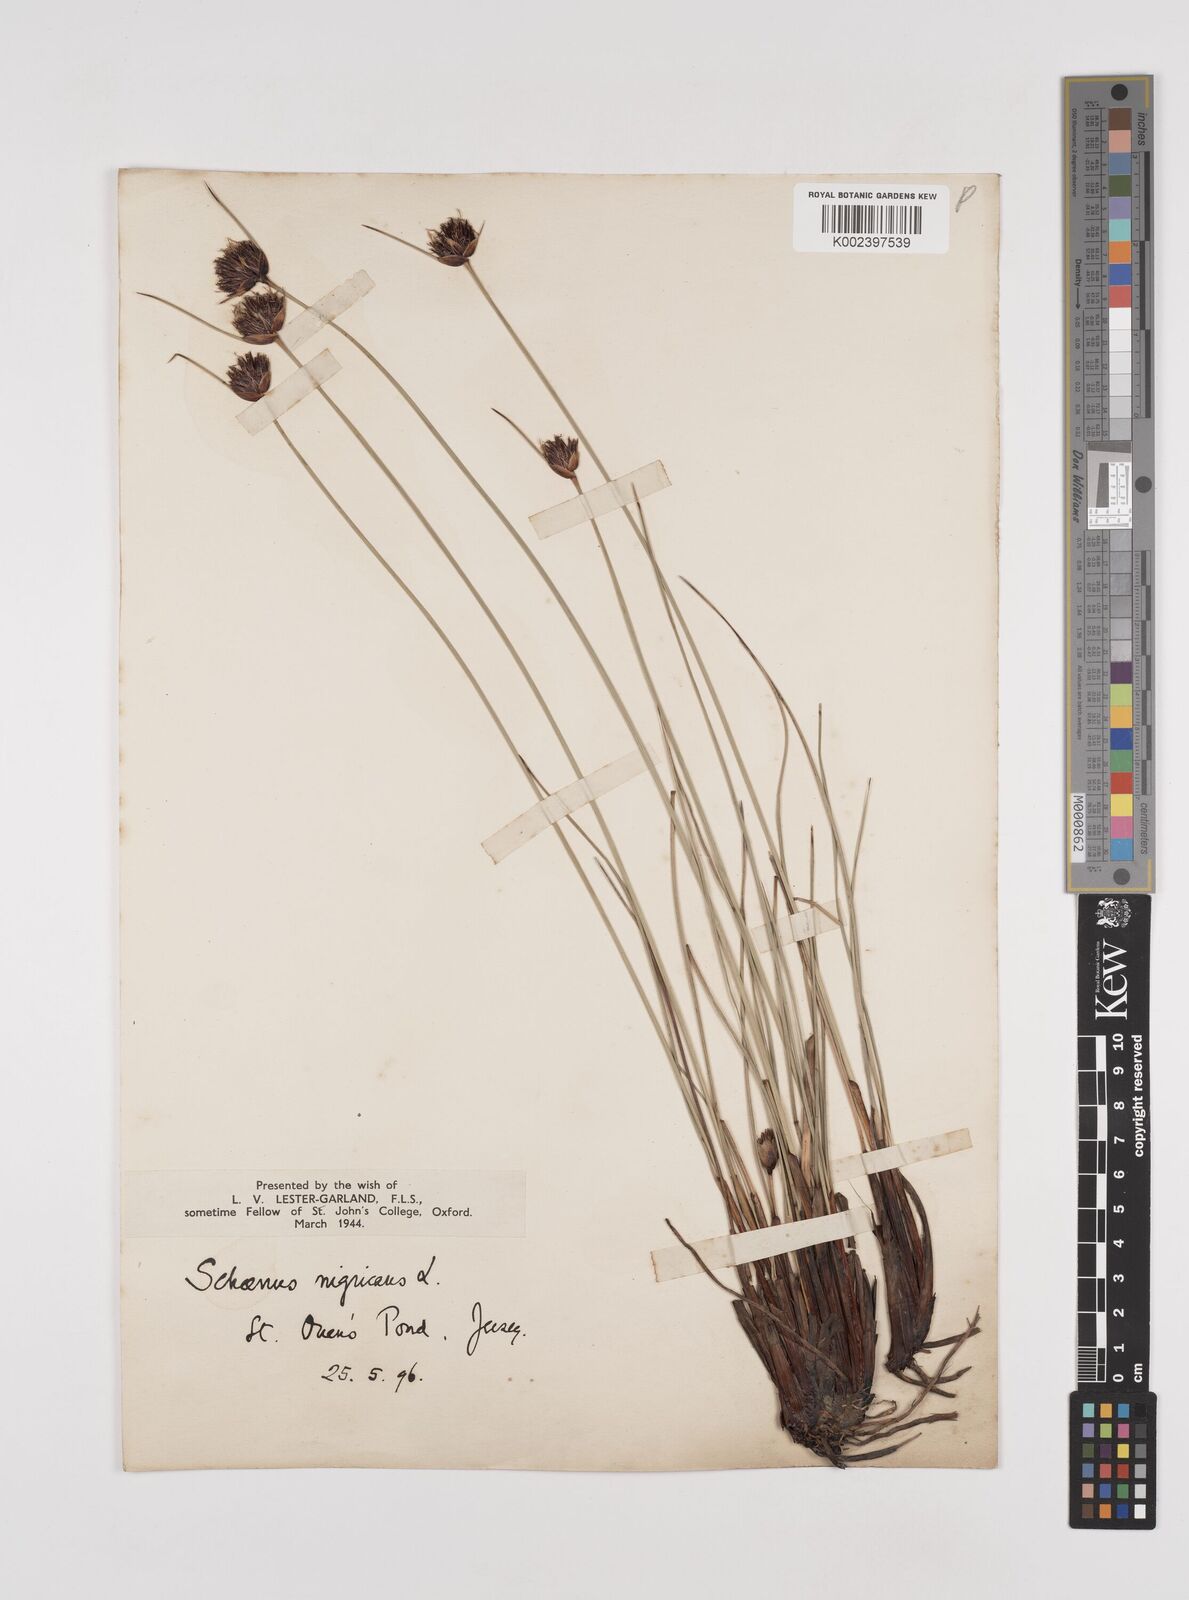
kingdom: Plantae
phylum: Tracheophyta
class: Liliopsida
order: Poales
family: Cyperaceae
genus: Schoenus
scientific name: Schoenus nigricans
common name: Black bog-rush
